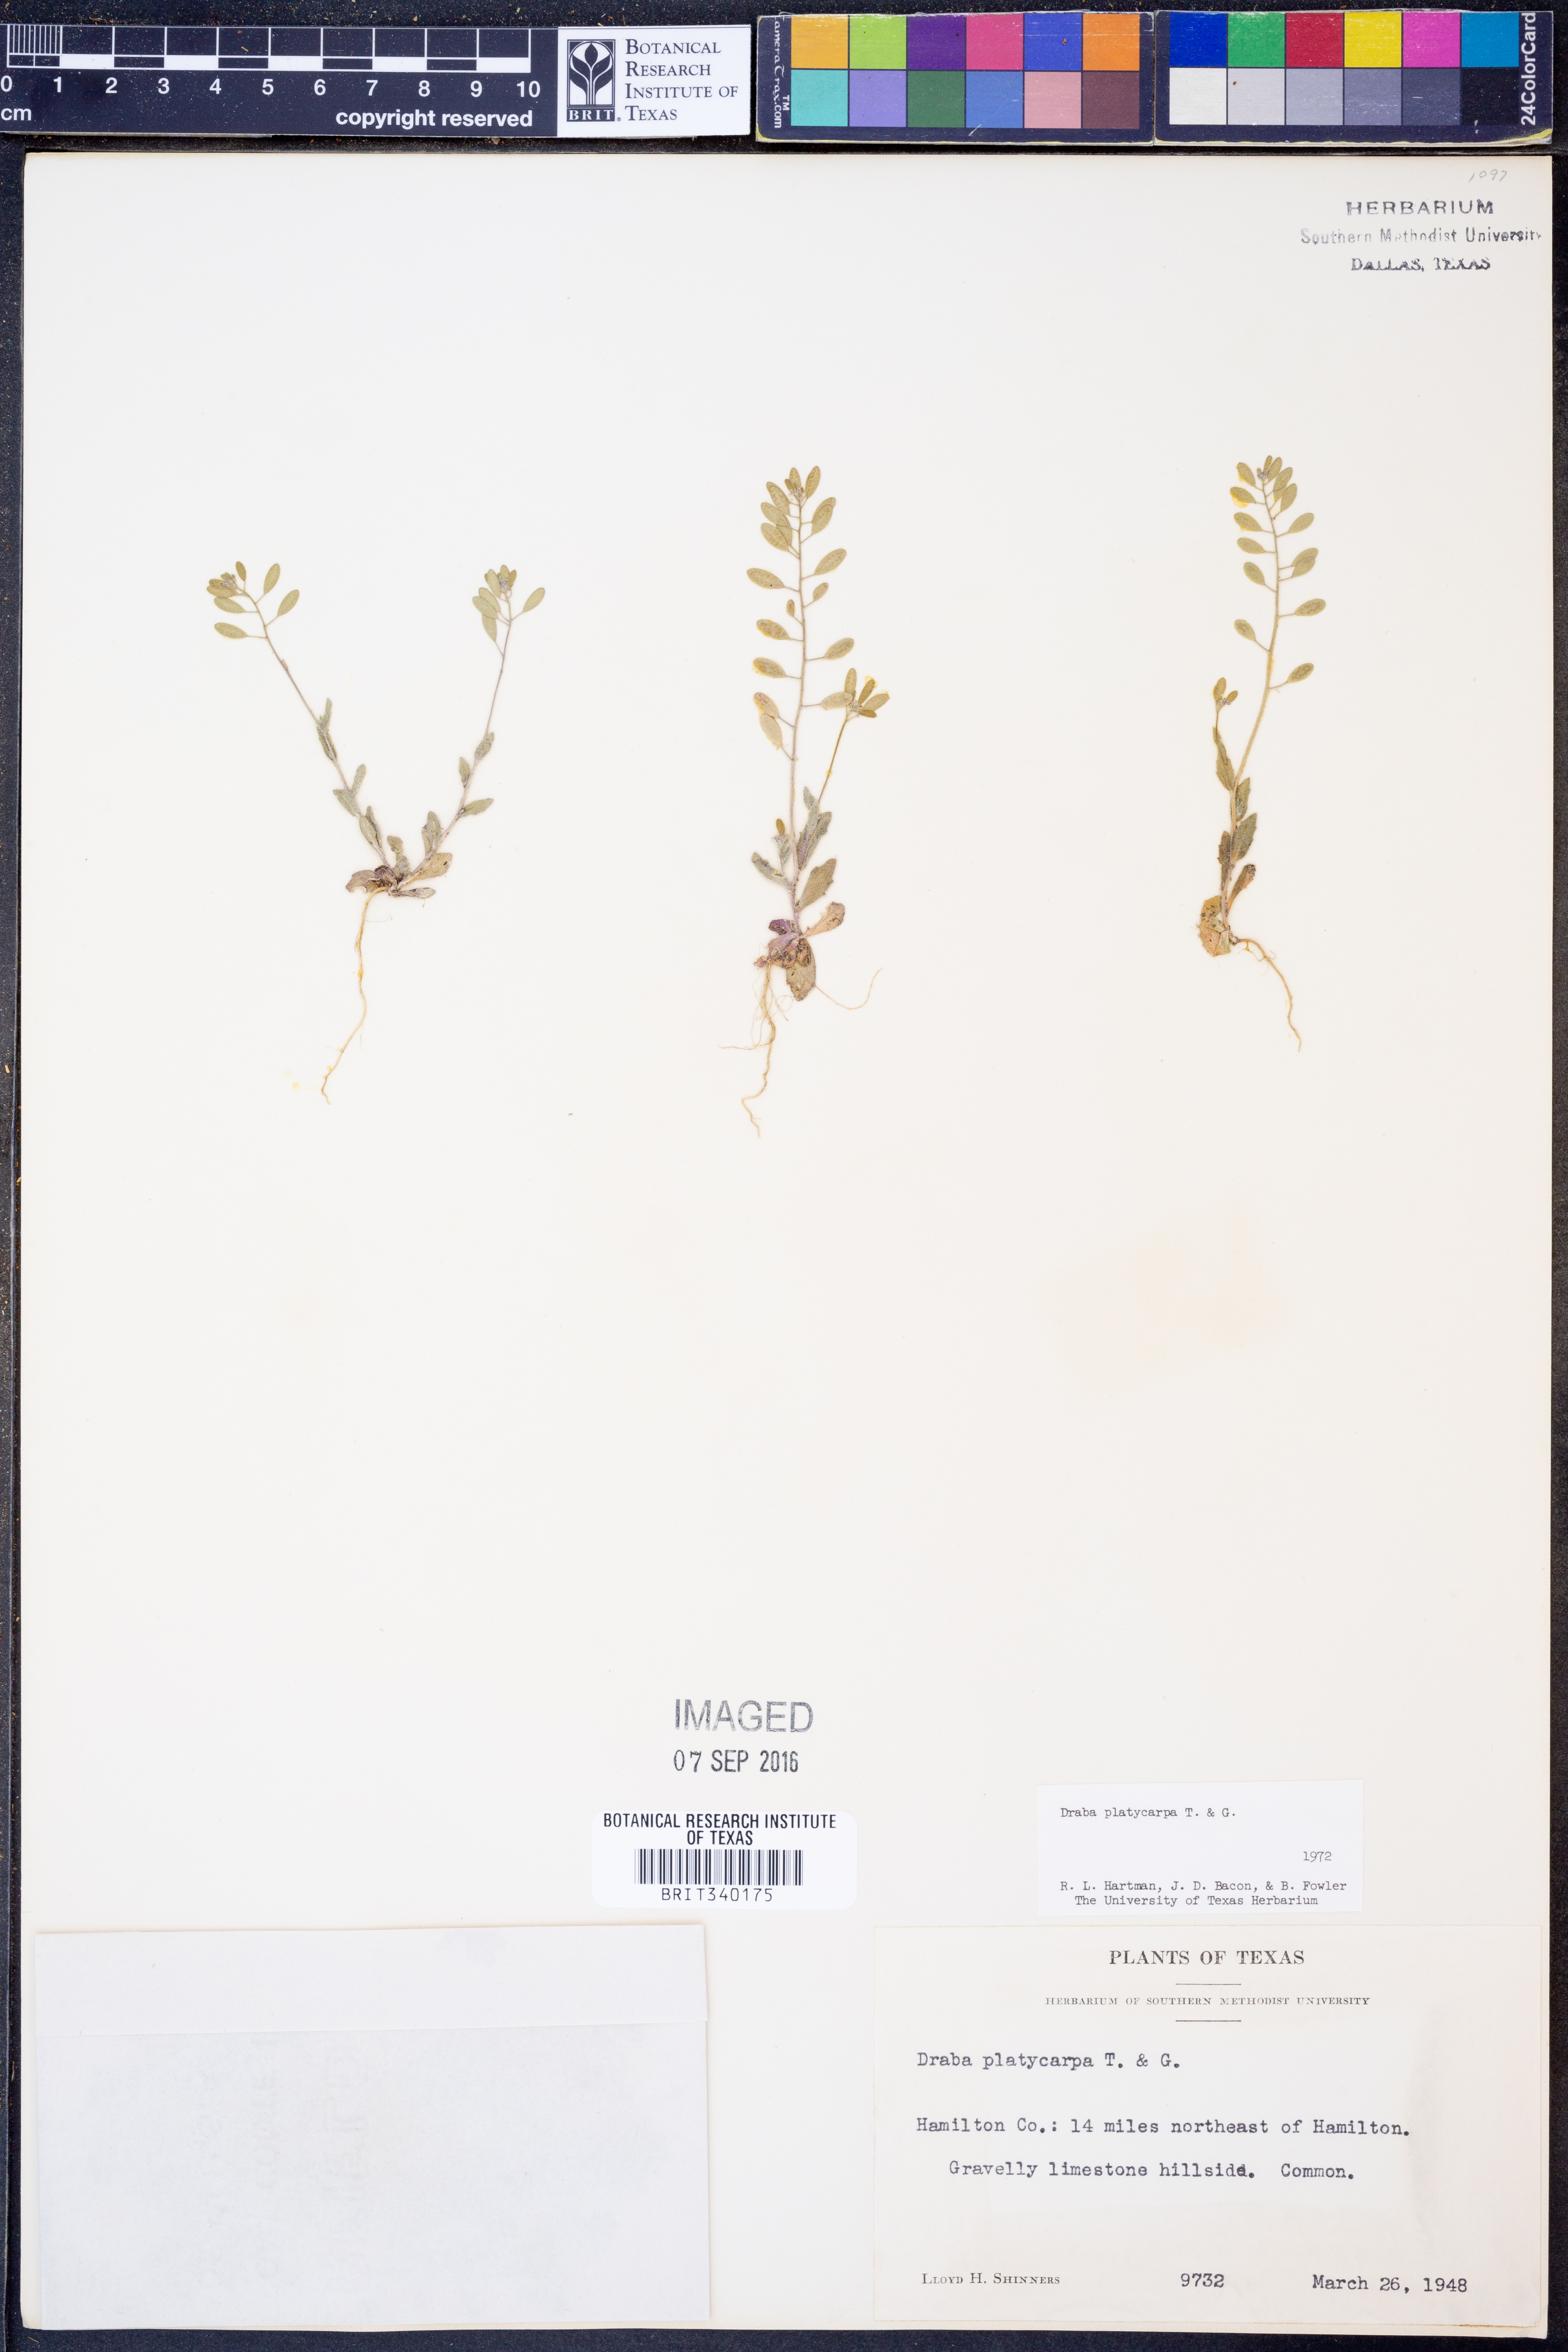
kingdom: Plantae
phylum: Tracheophyta
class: Magnoliopsida
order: Brassicales
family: Brassicaceae
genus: Tomostima
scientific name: Tomostima platycarpa
